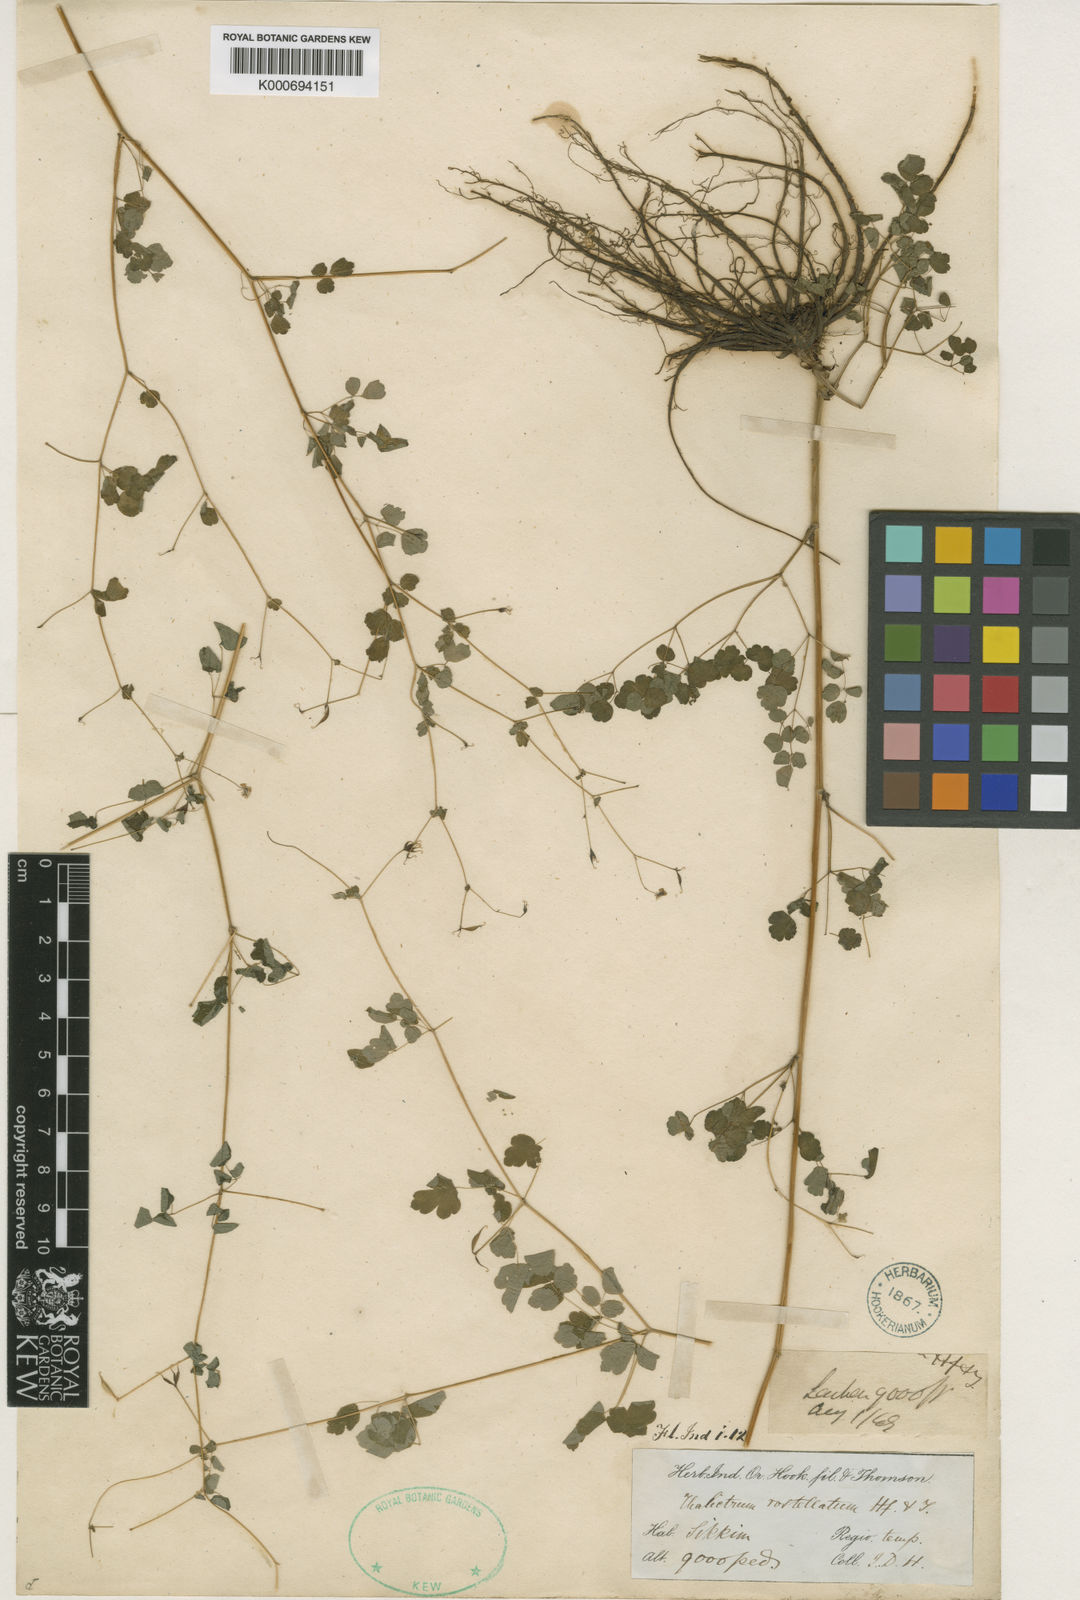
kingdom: Plantae
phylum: Tracheophyta
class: Magnoliopsida
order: Ranunculales
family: Ranunculaceae
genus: Thalictrum
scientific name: Thalictrum rostellatum
